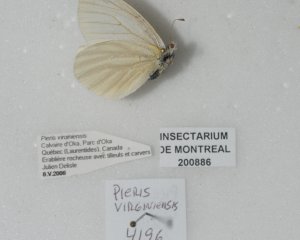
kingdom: Animalia
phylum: Arthropoda
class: Insecta
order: Lepidoptera
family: Pieridae
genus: Pieris
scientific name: Pieris virginiensis
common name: West Virginia White
